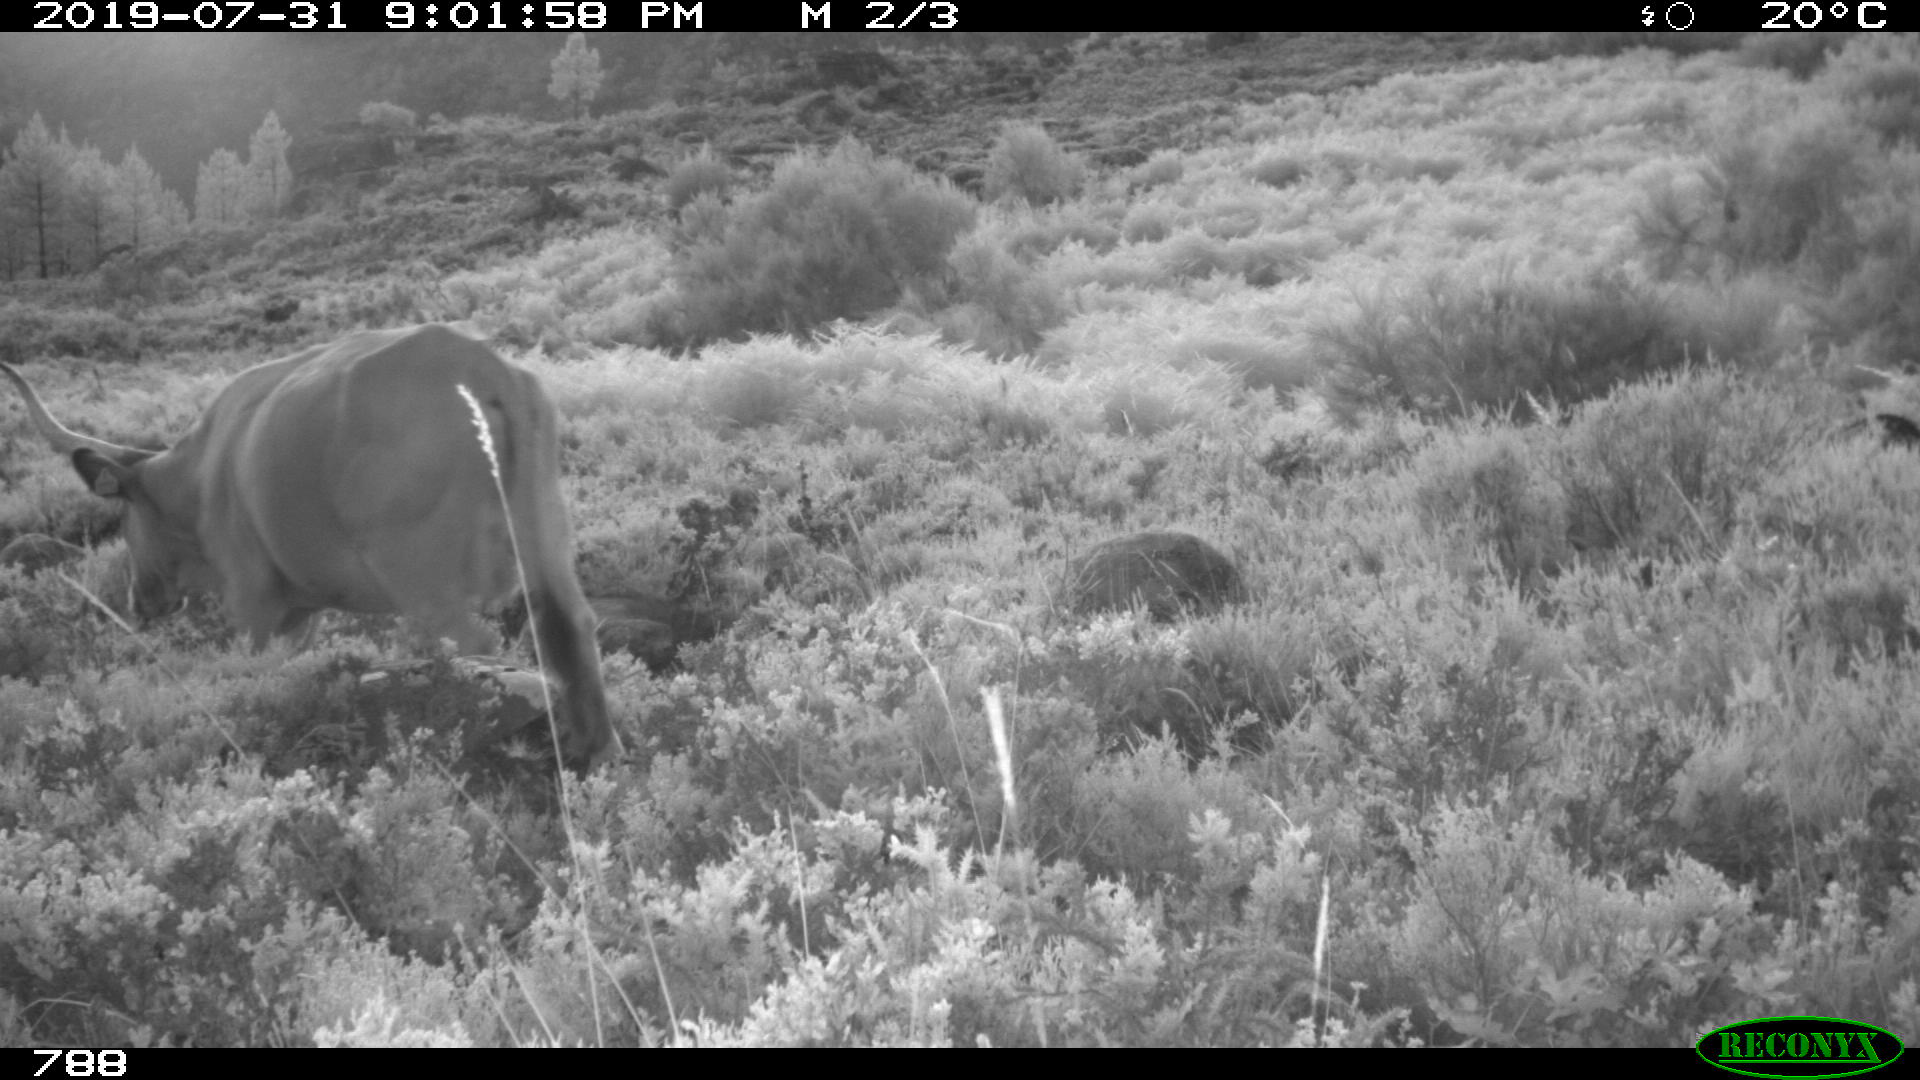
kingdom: Animalia
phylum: Chordata
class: Mammalia
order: Artiodactyla
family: Bovidae
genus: Bos
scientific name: Bos taurus
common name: Domesticated cattle
